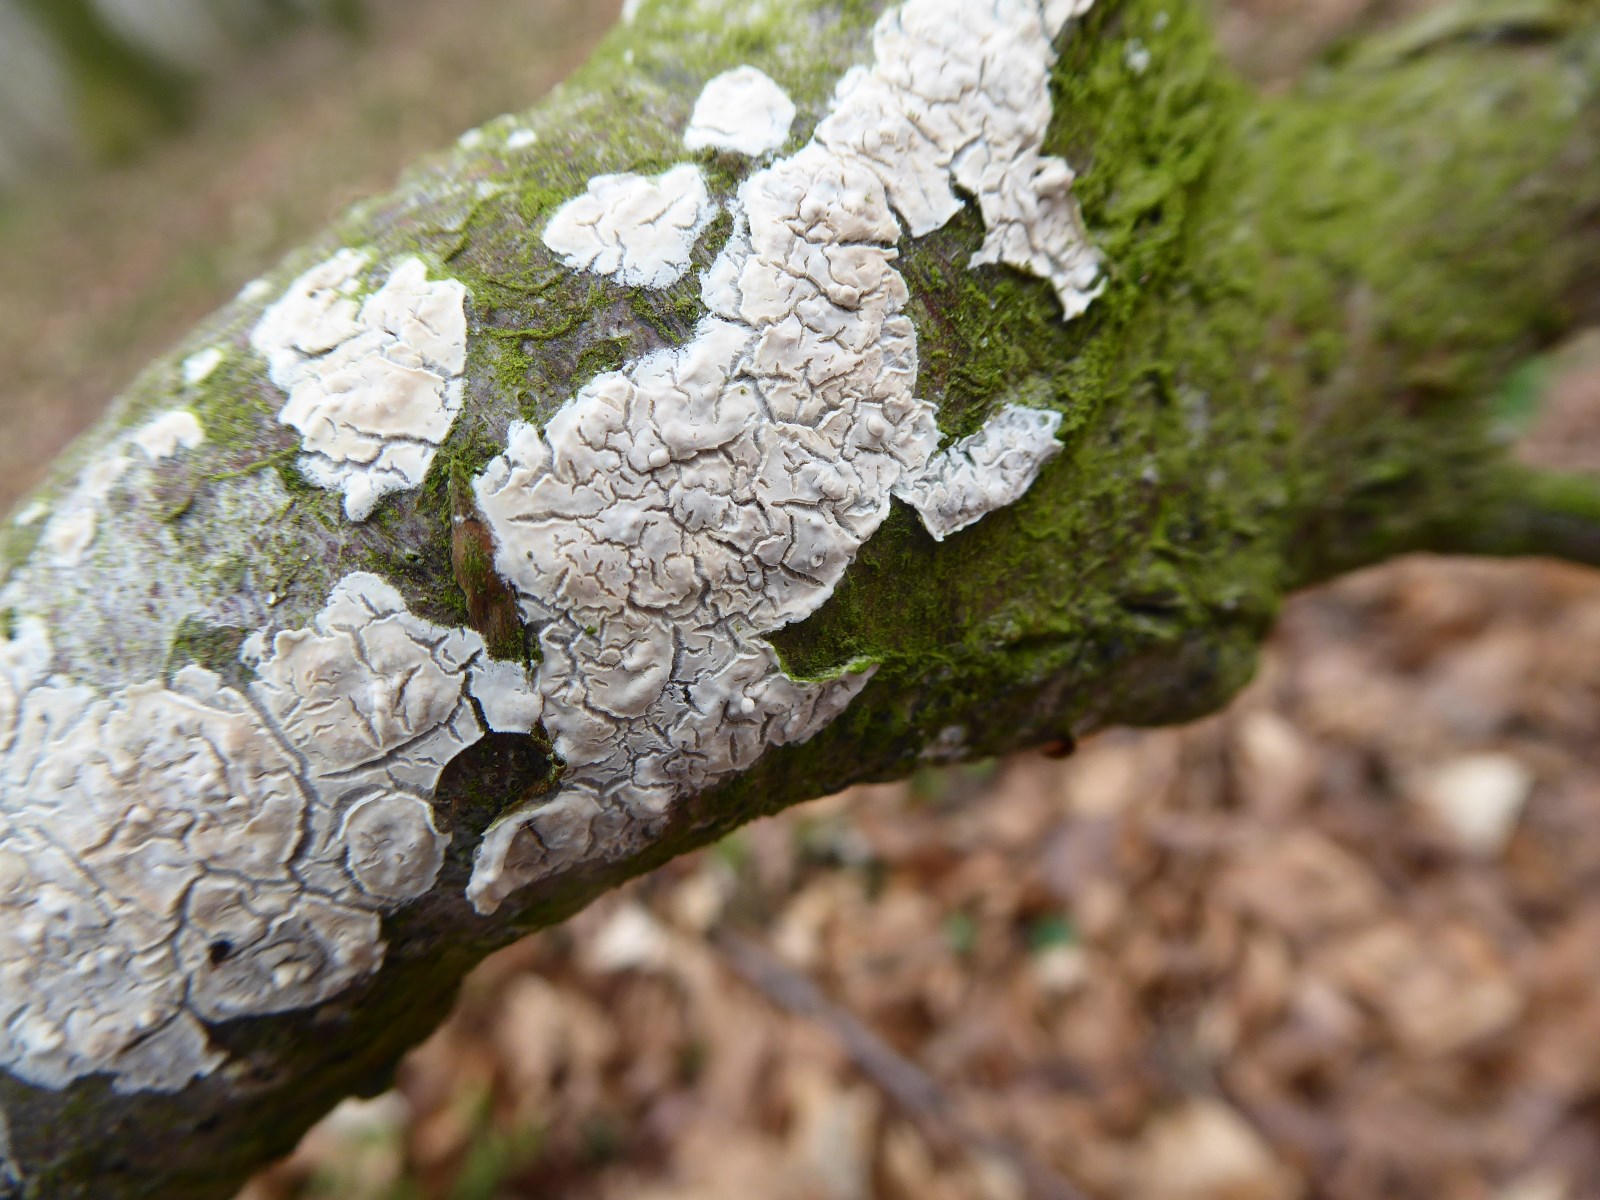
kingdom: Fungi
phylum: Basidiomycota
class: Agaricomycetes
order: Agaricales
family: Physalacriaceae
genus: Cylindrobasidium
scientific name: Cylindrobasidium evolvens
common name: sprækkehinde
